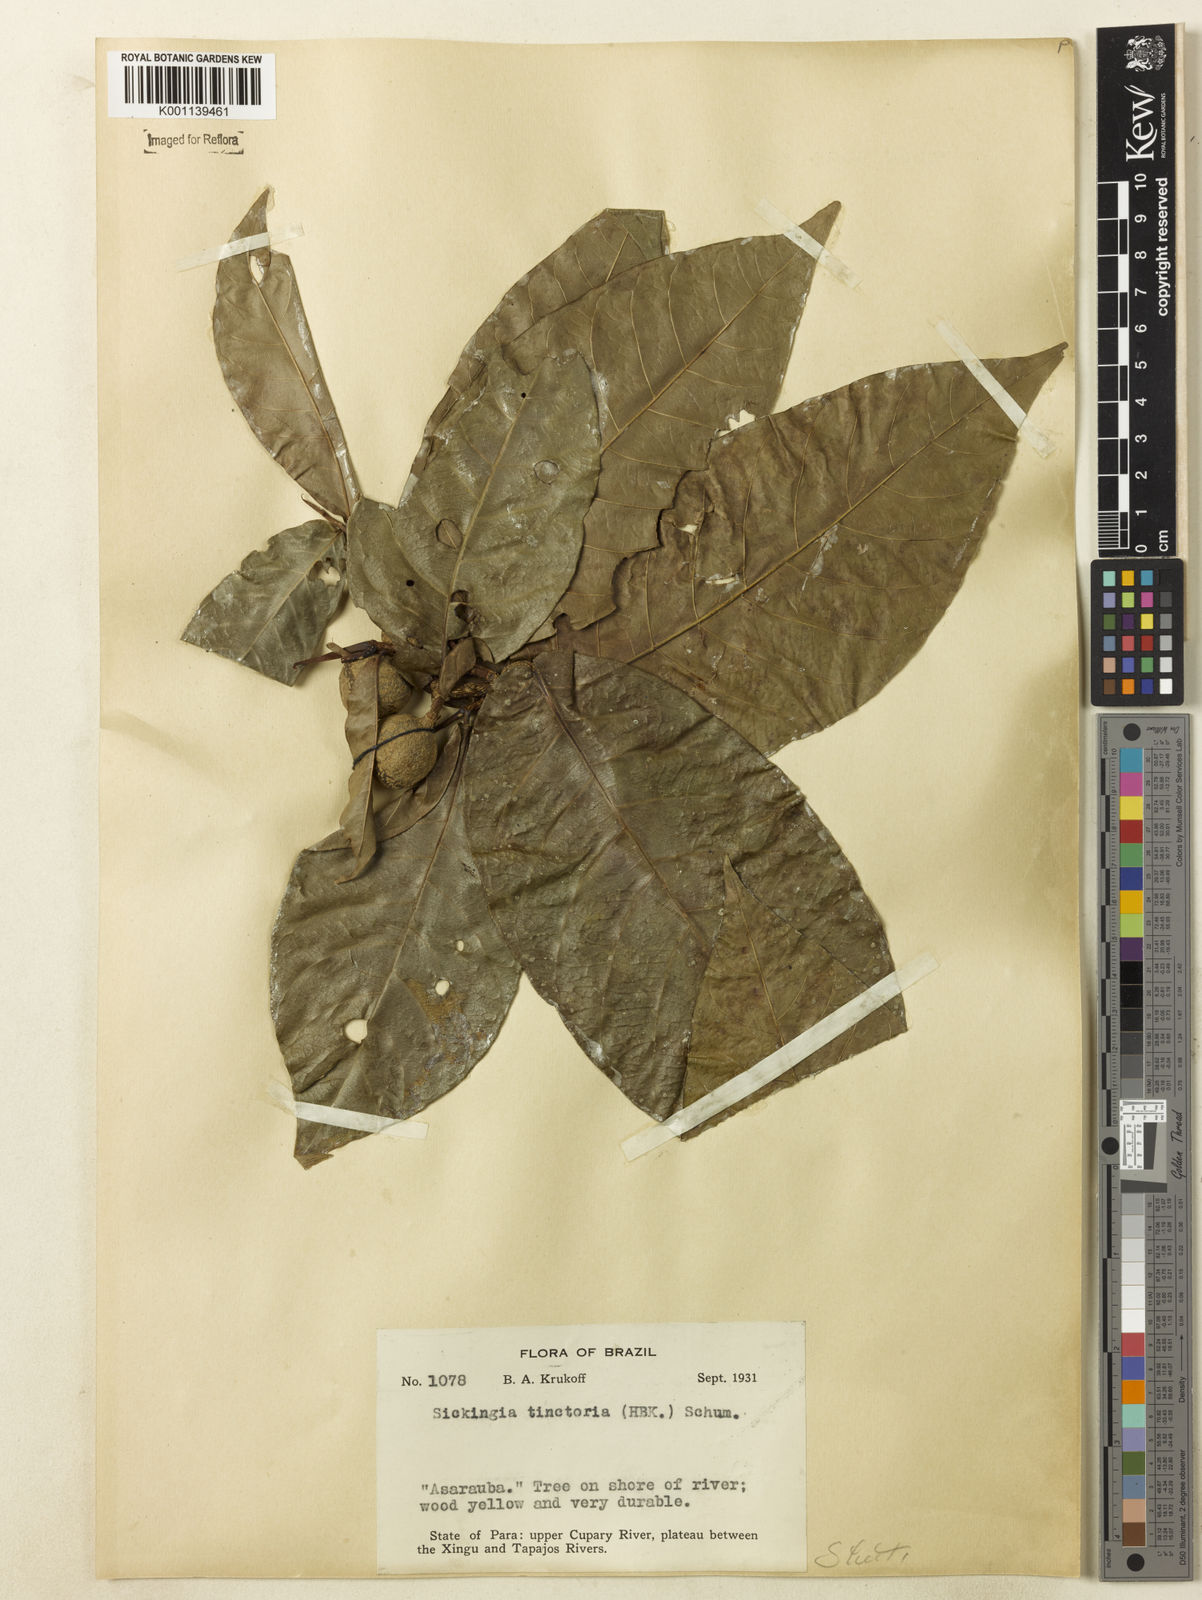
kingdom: Plantae
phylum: Tracheophyta
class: Magnoliopsida
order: Gentianales
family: Rubiaceae
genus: Simira
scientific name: Simira rubescens
